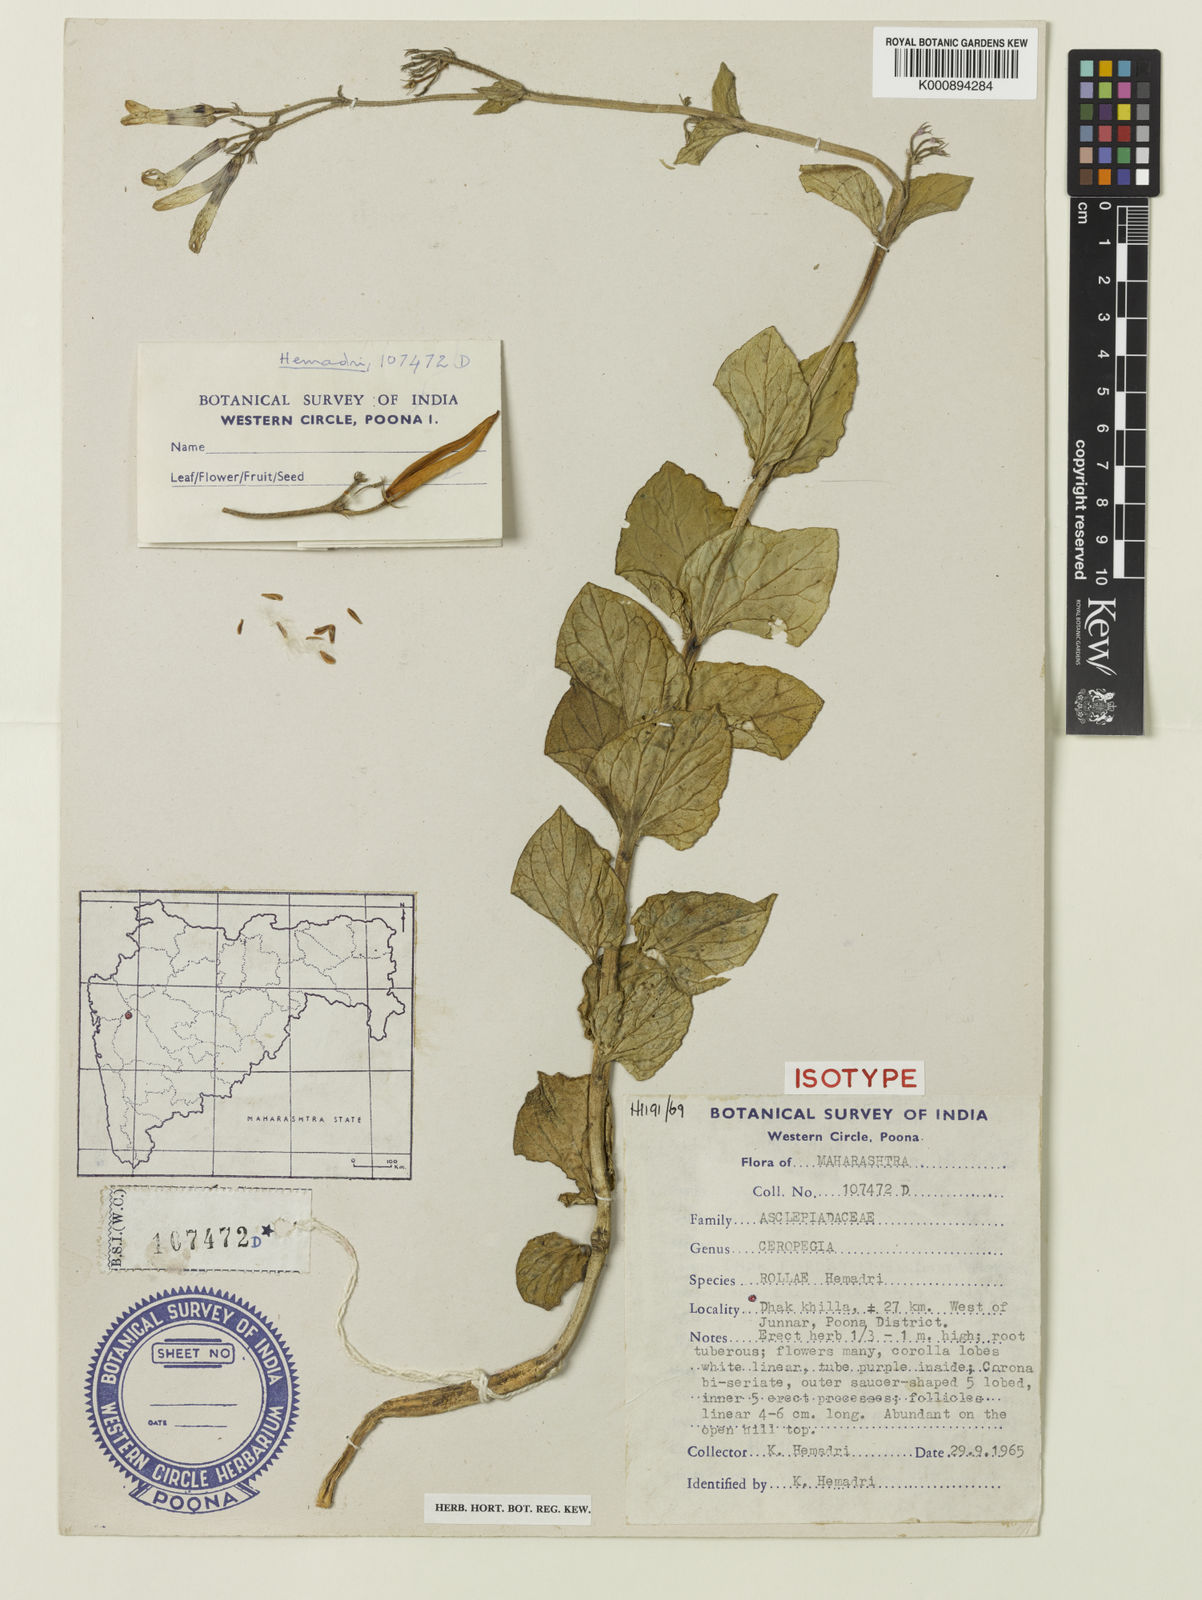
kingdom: Plantae
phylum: Tracheophyta
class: Magnoliopsida
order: Gentianales
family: Apocynaceae
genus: Ceropegia
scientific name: Ceropegia lawii
